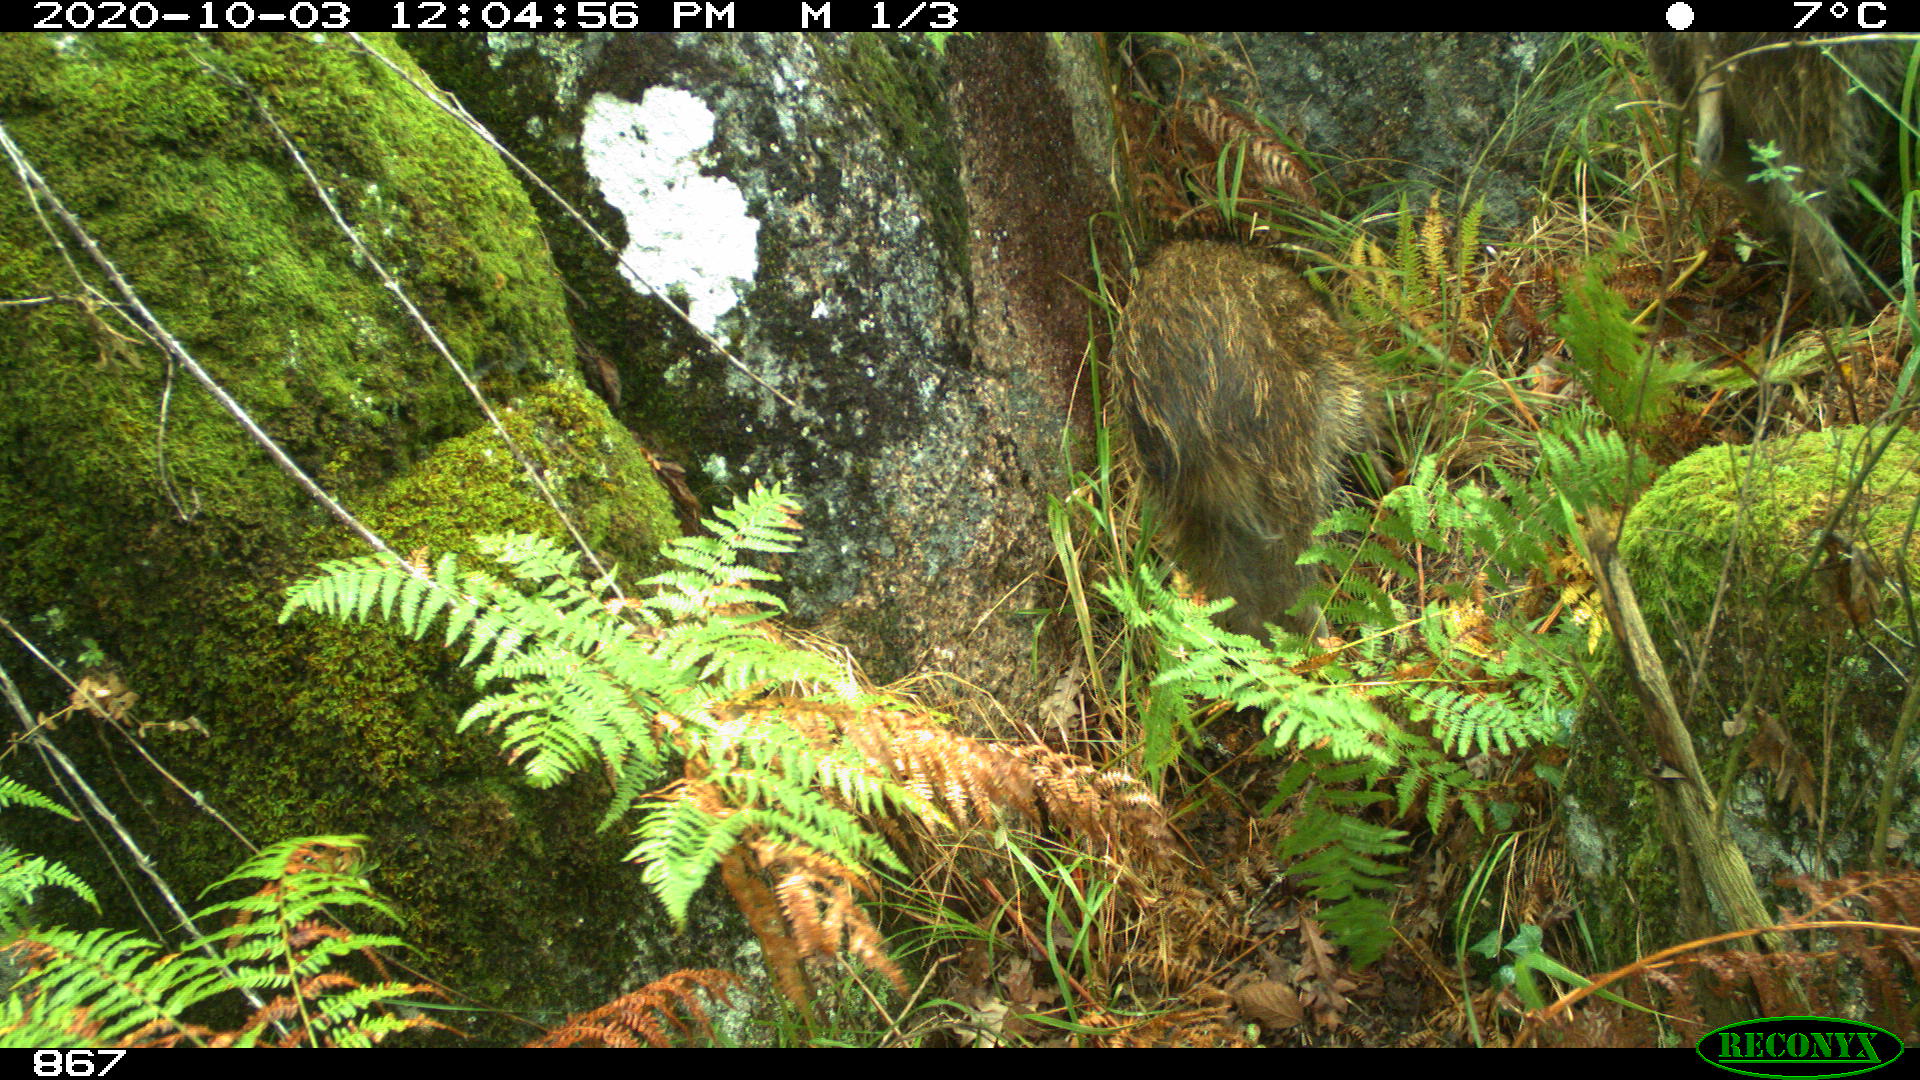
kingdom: Animalia
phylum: Chordata
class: Mammalia
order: Artiodactyla
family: Suidae
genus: Sus
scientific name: Sus scrofa
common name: Wild boar
